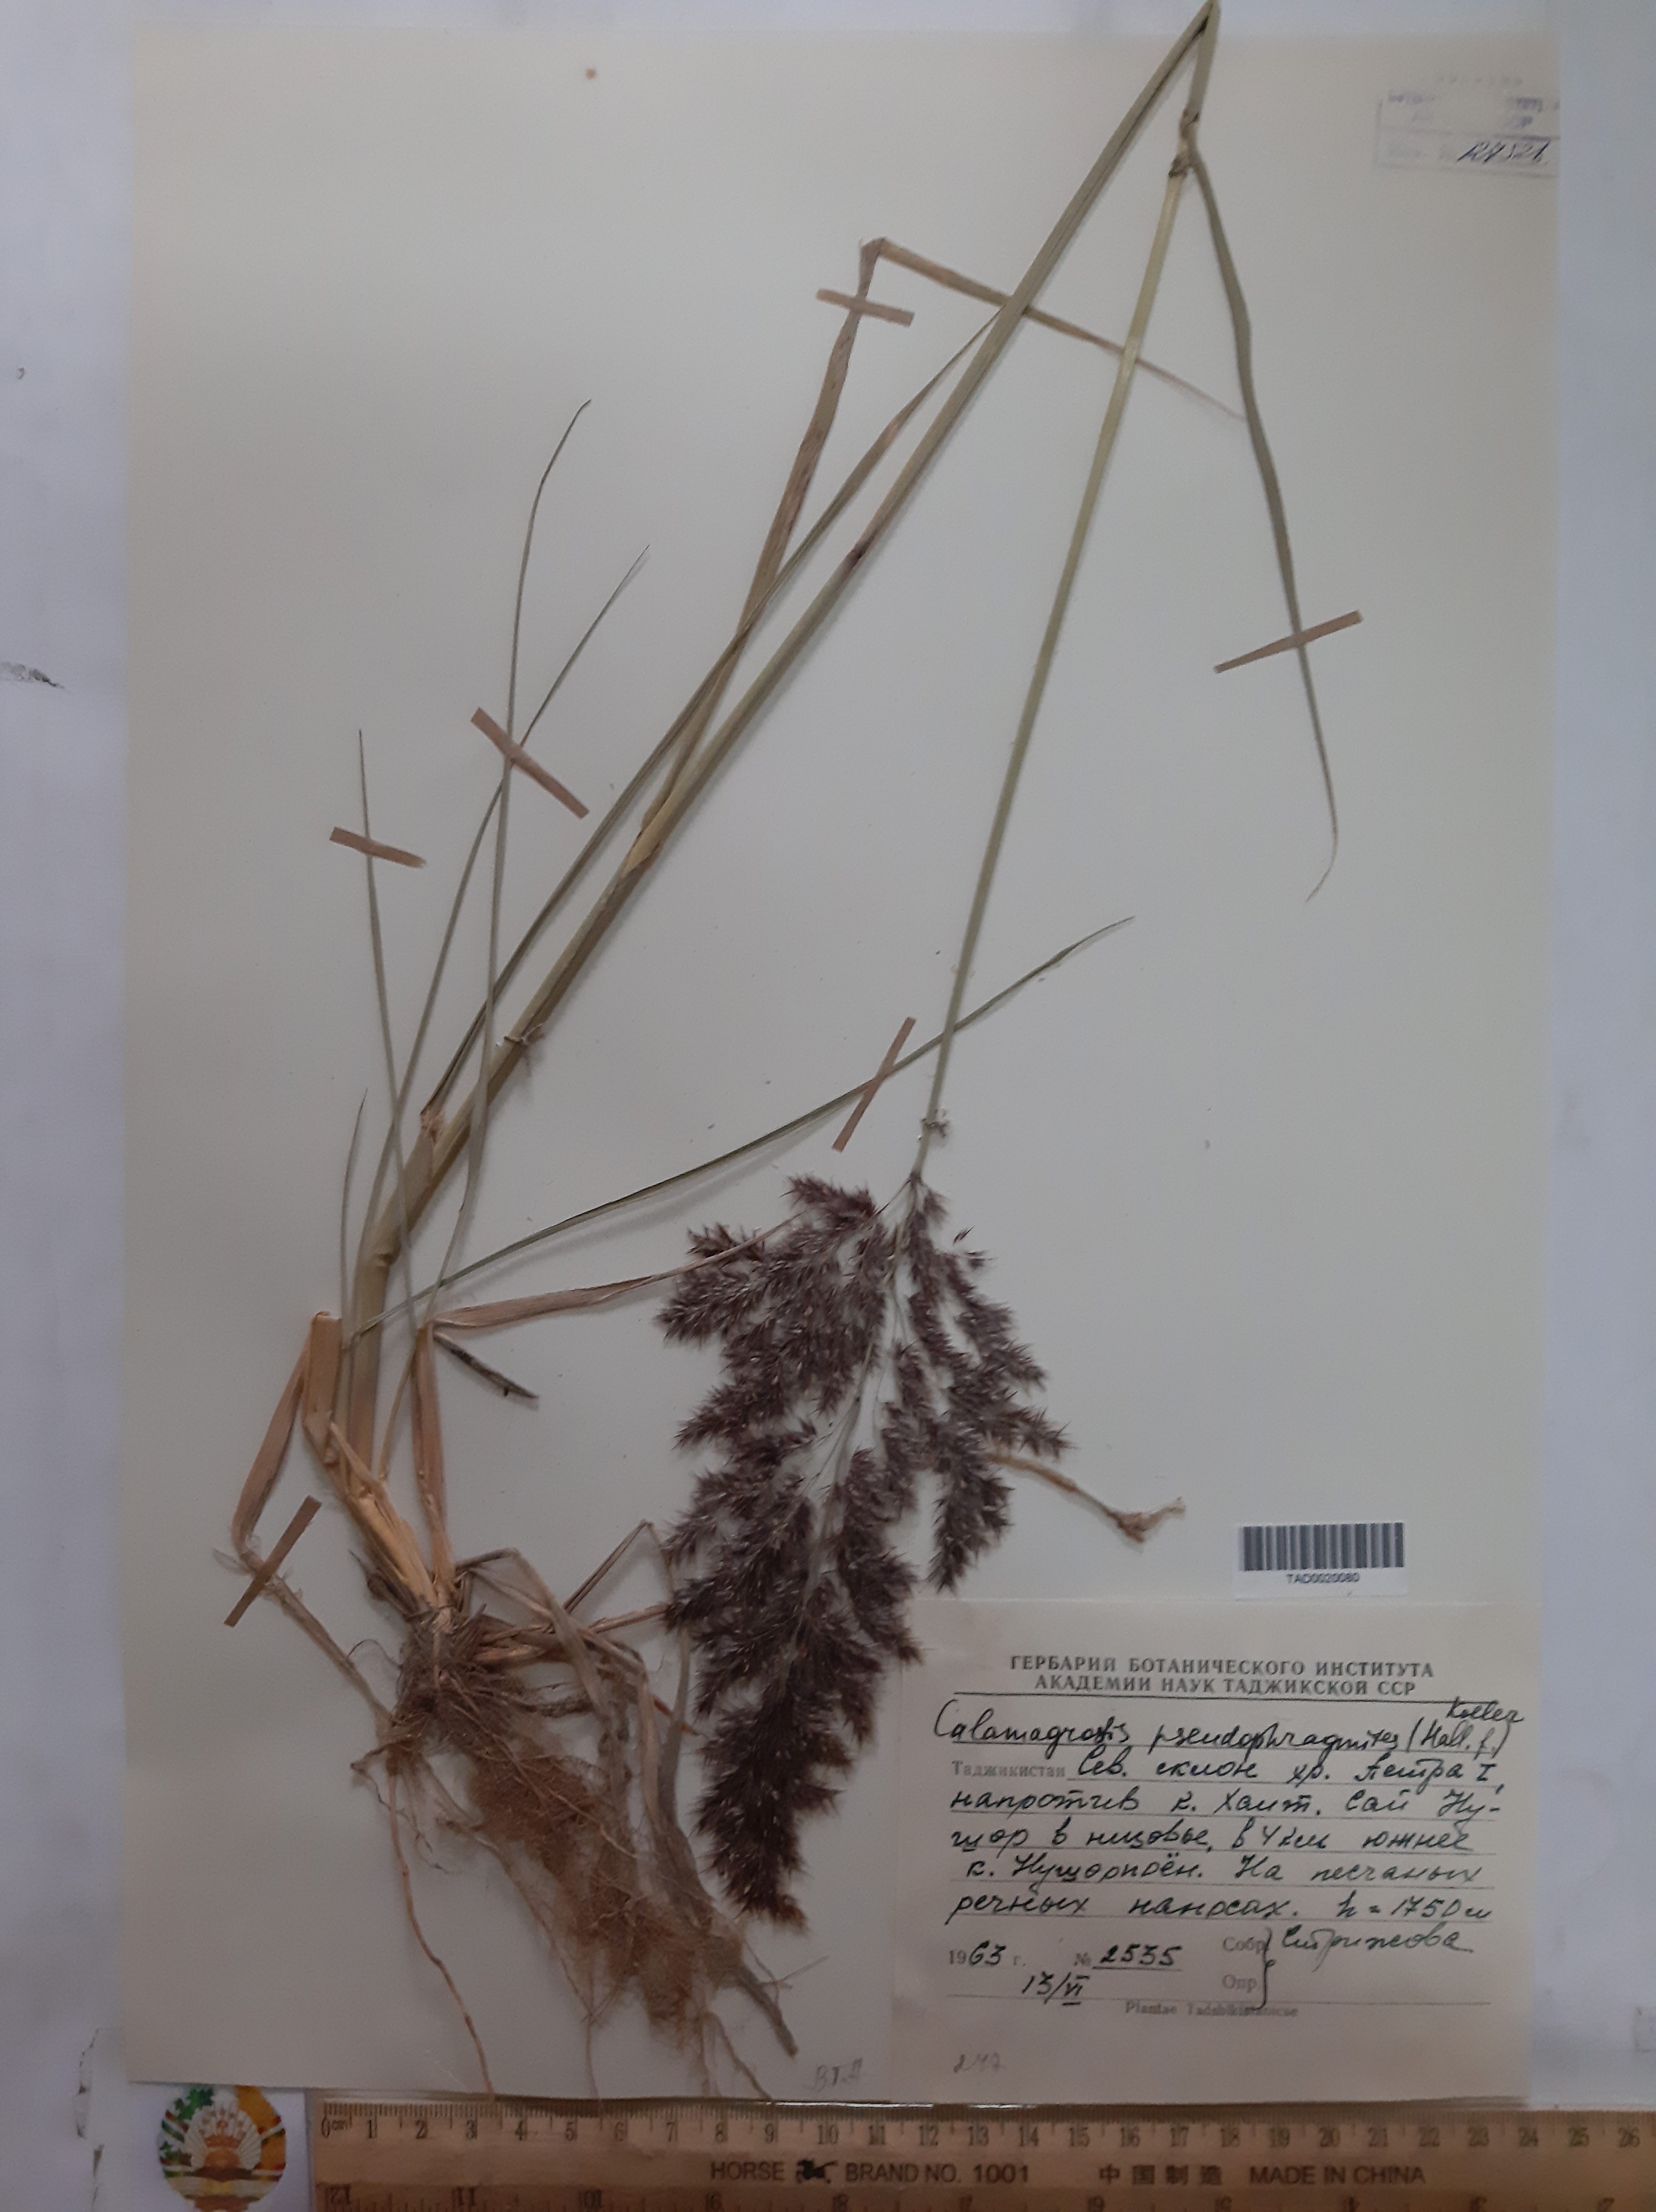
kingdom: Plantae
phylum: Tracheophyta
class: Liliopsida
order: Poales
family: Poaceae
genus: Calamagrostis
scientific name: Calamagrostis pseudophragmites
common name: Coastal small-reed
